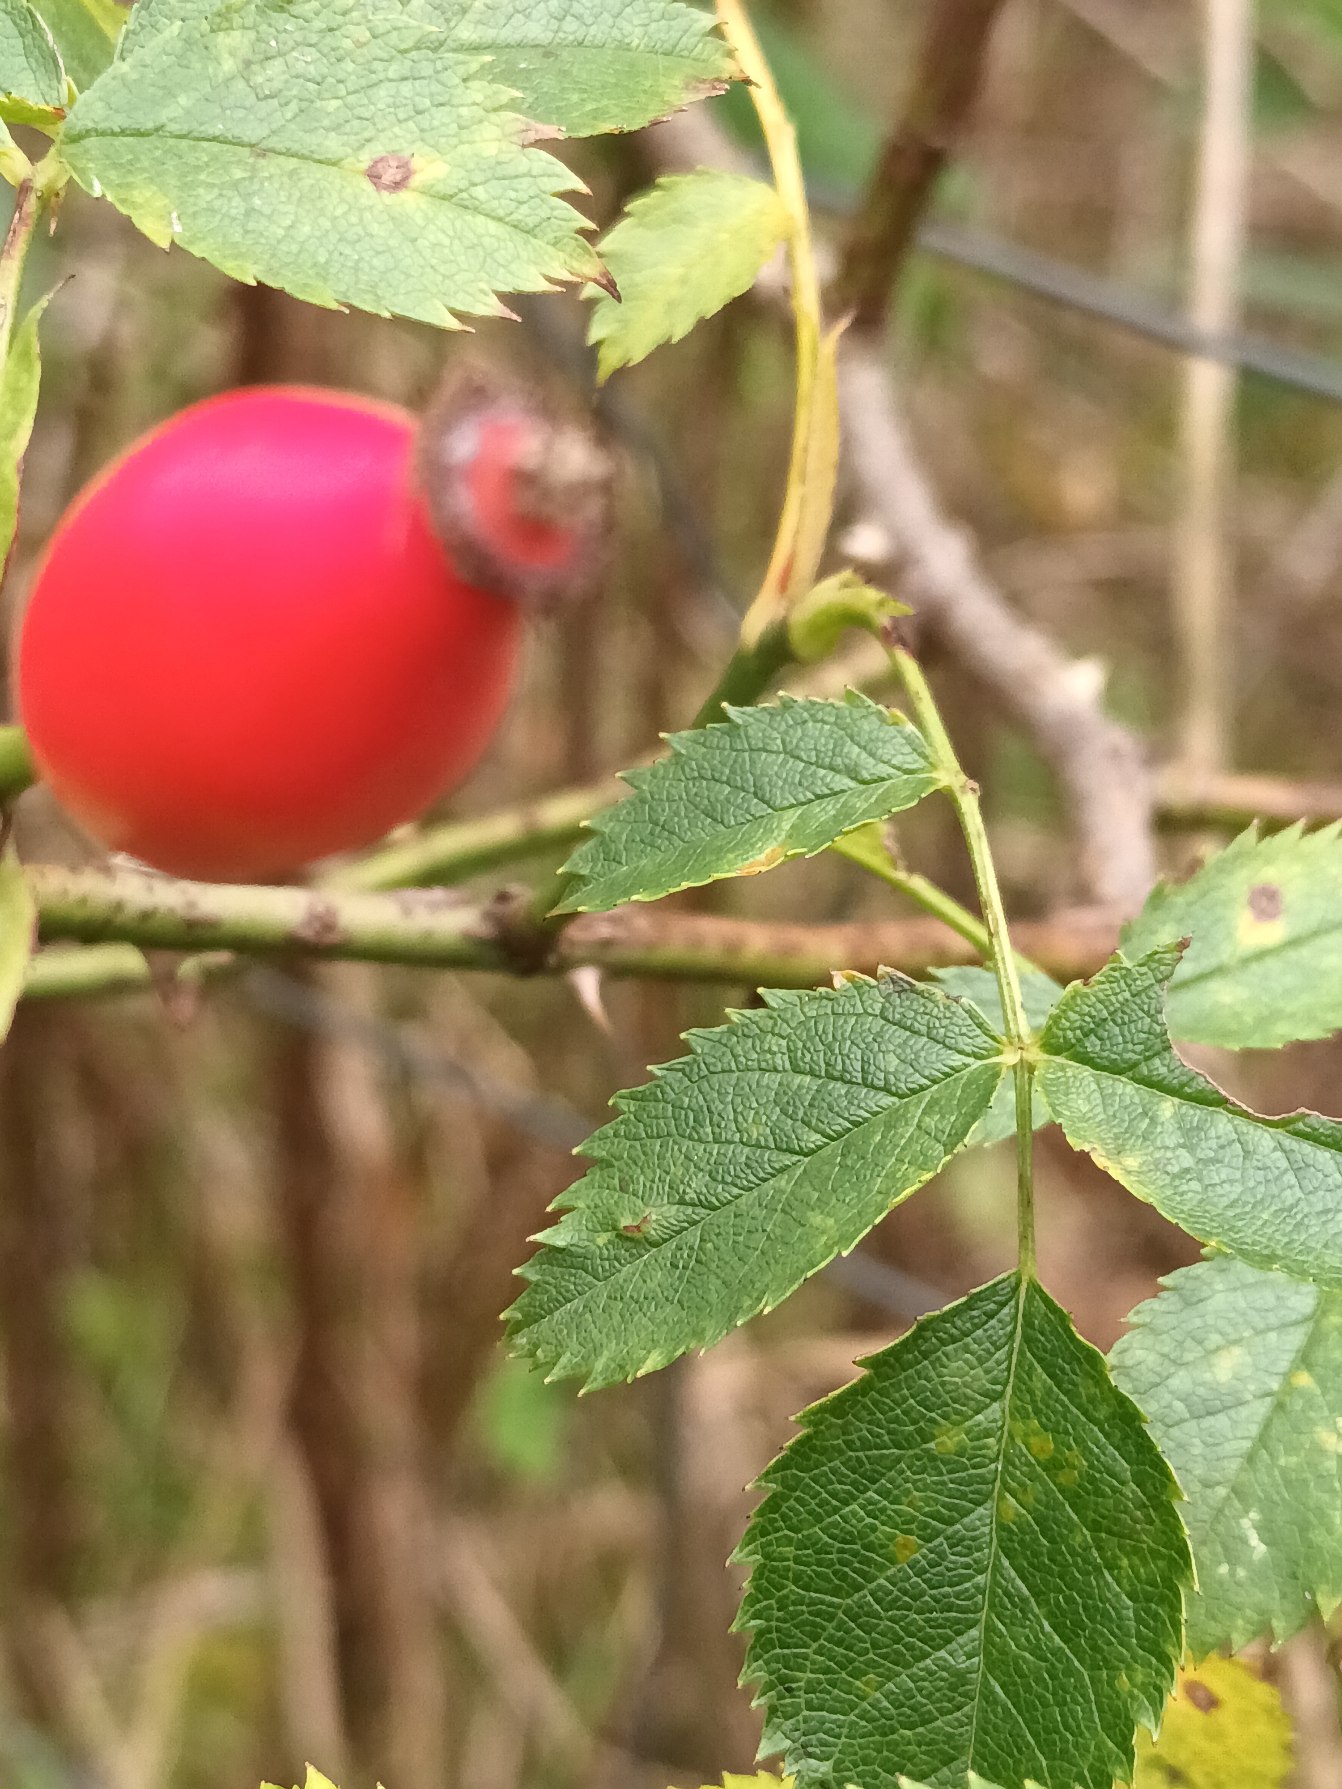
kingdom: Plantae
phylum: Tracheophyta
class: Magnoliopsida
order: Rosales
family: Rosaceae
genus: Rosa
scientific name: Rosa canina
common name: Glat hunde-rose
